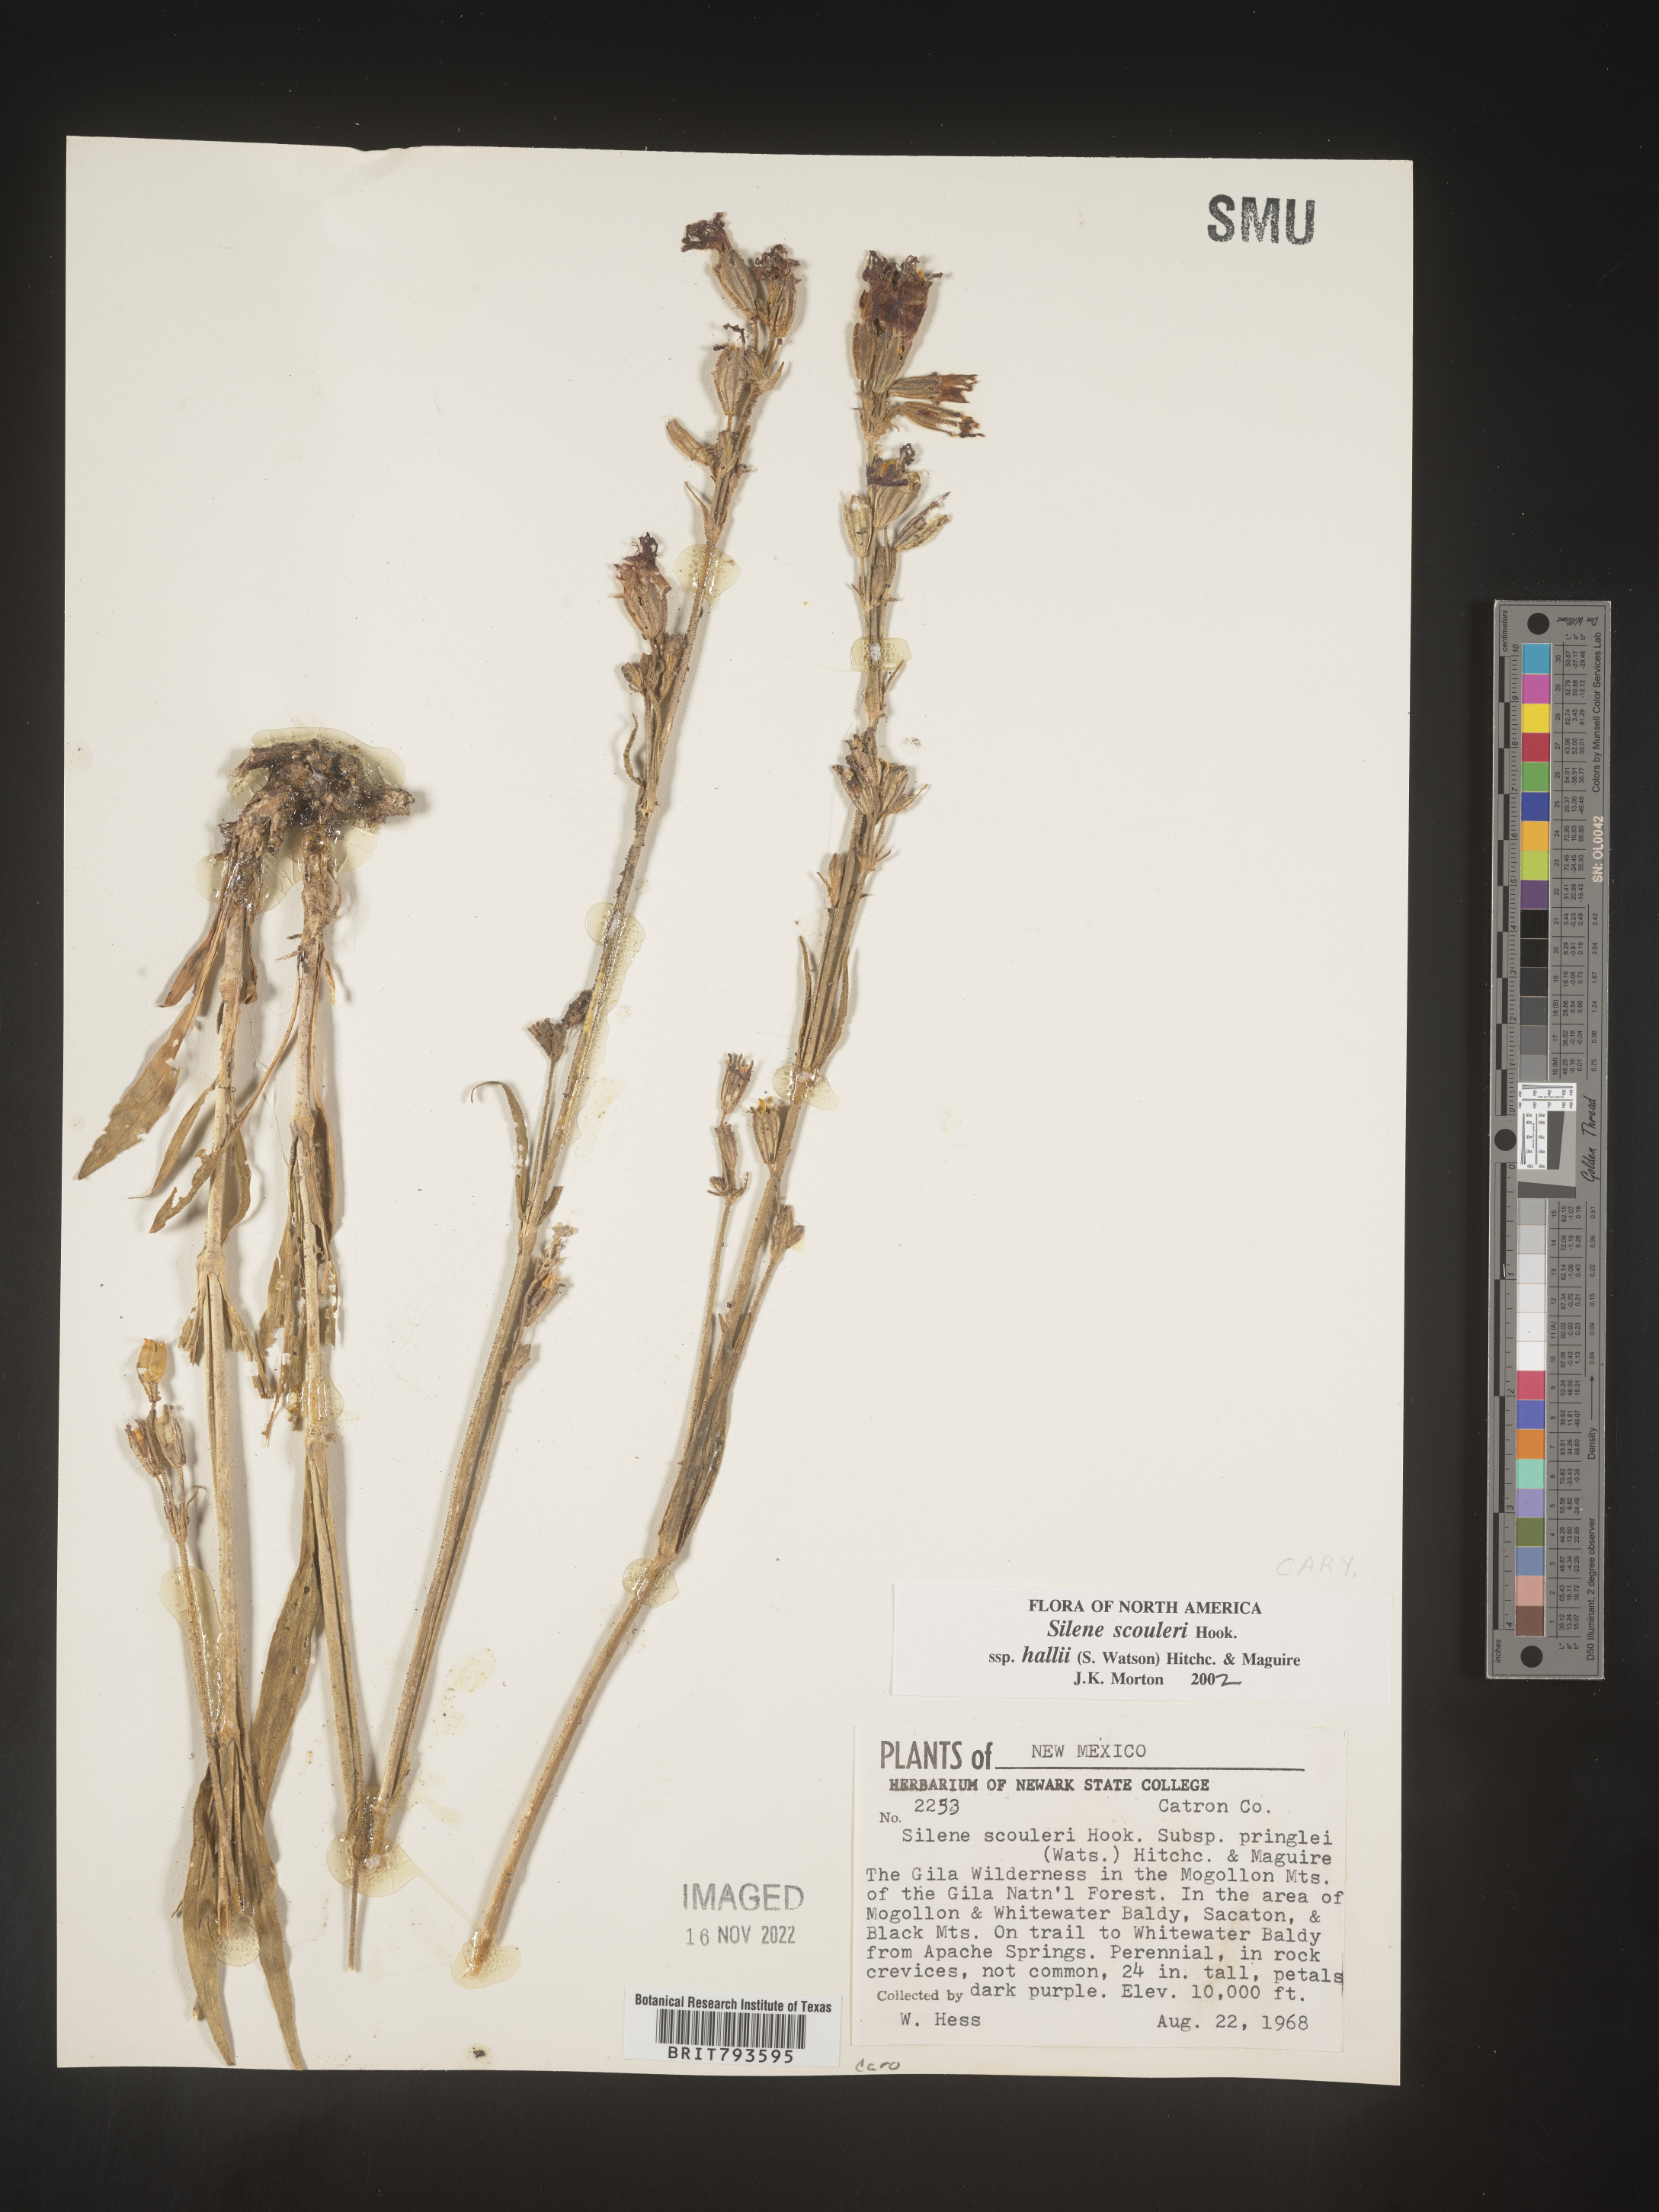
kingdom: Plantae
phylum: Tracheophyta
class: Magnoliopsida
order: Caryophyllales
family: Caryophyllaceae
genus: Silene
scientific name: Silene scouleri
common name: Scouler's campion
